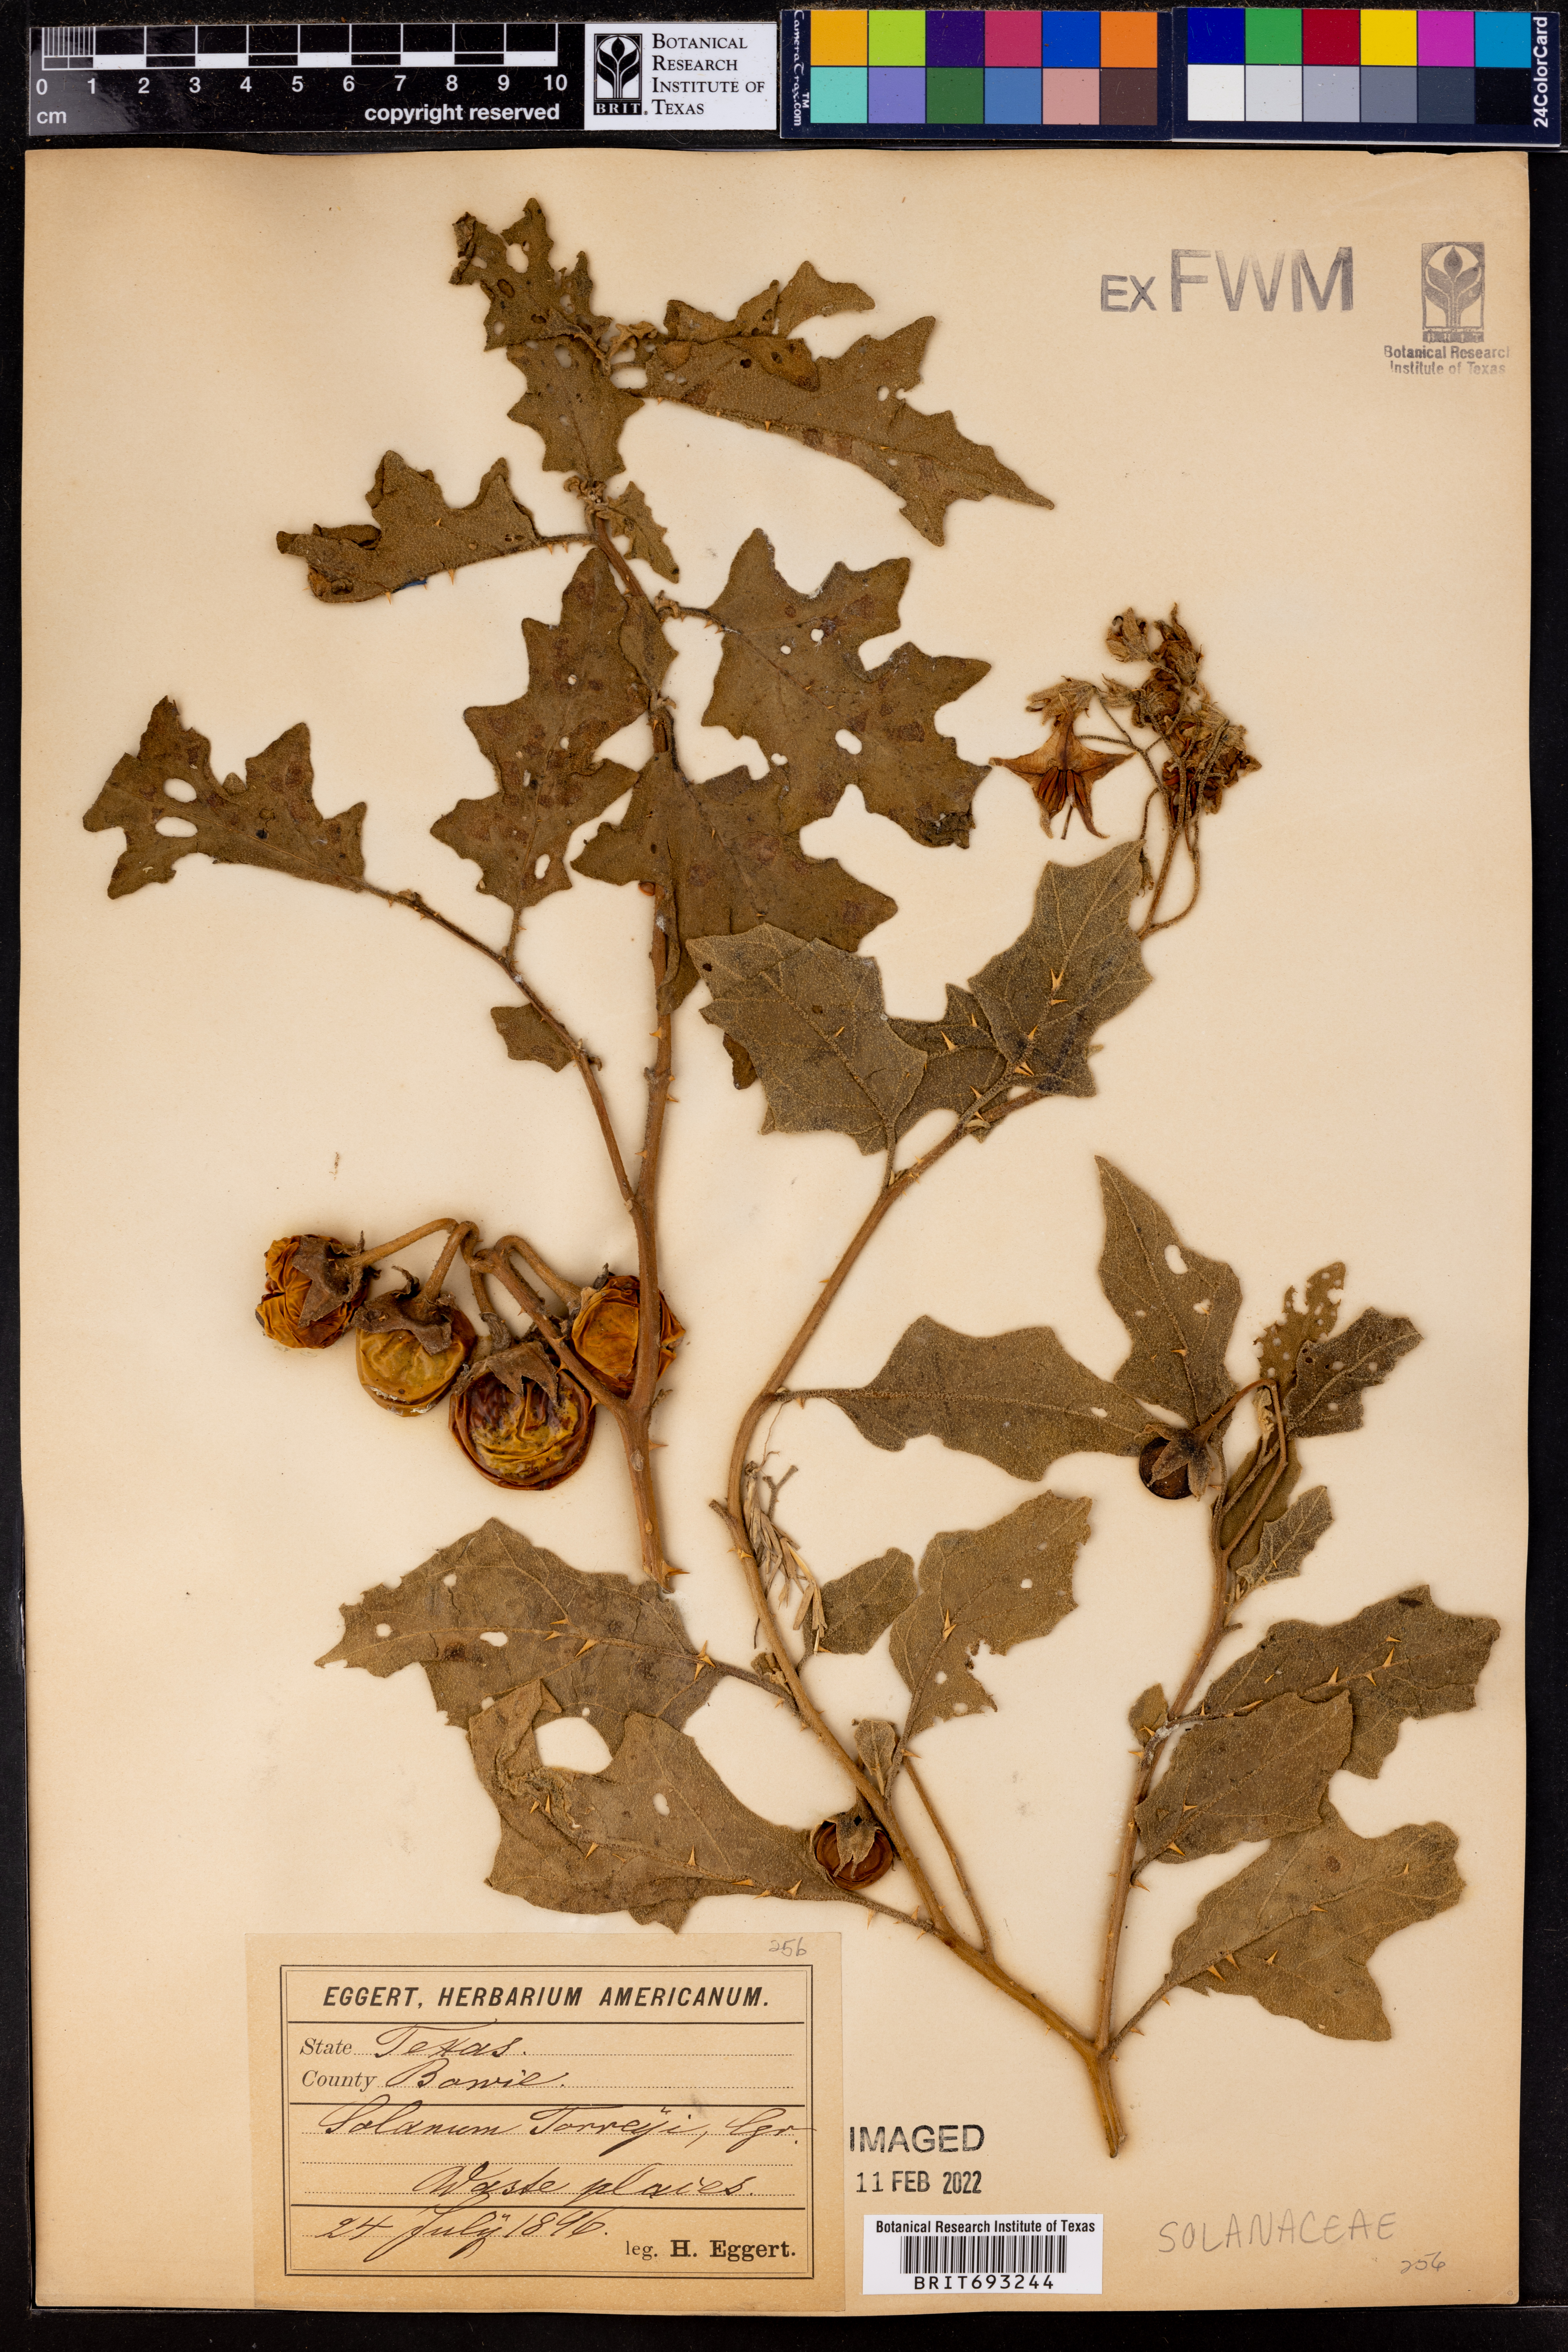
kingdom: Plantae
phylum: Tracheophyta
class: Magnoliopsida
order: Solanales
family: Solanaceae
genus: Solanum
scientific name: Solanum dimidiatum
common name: Carolina horse-nettle
